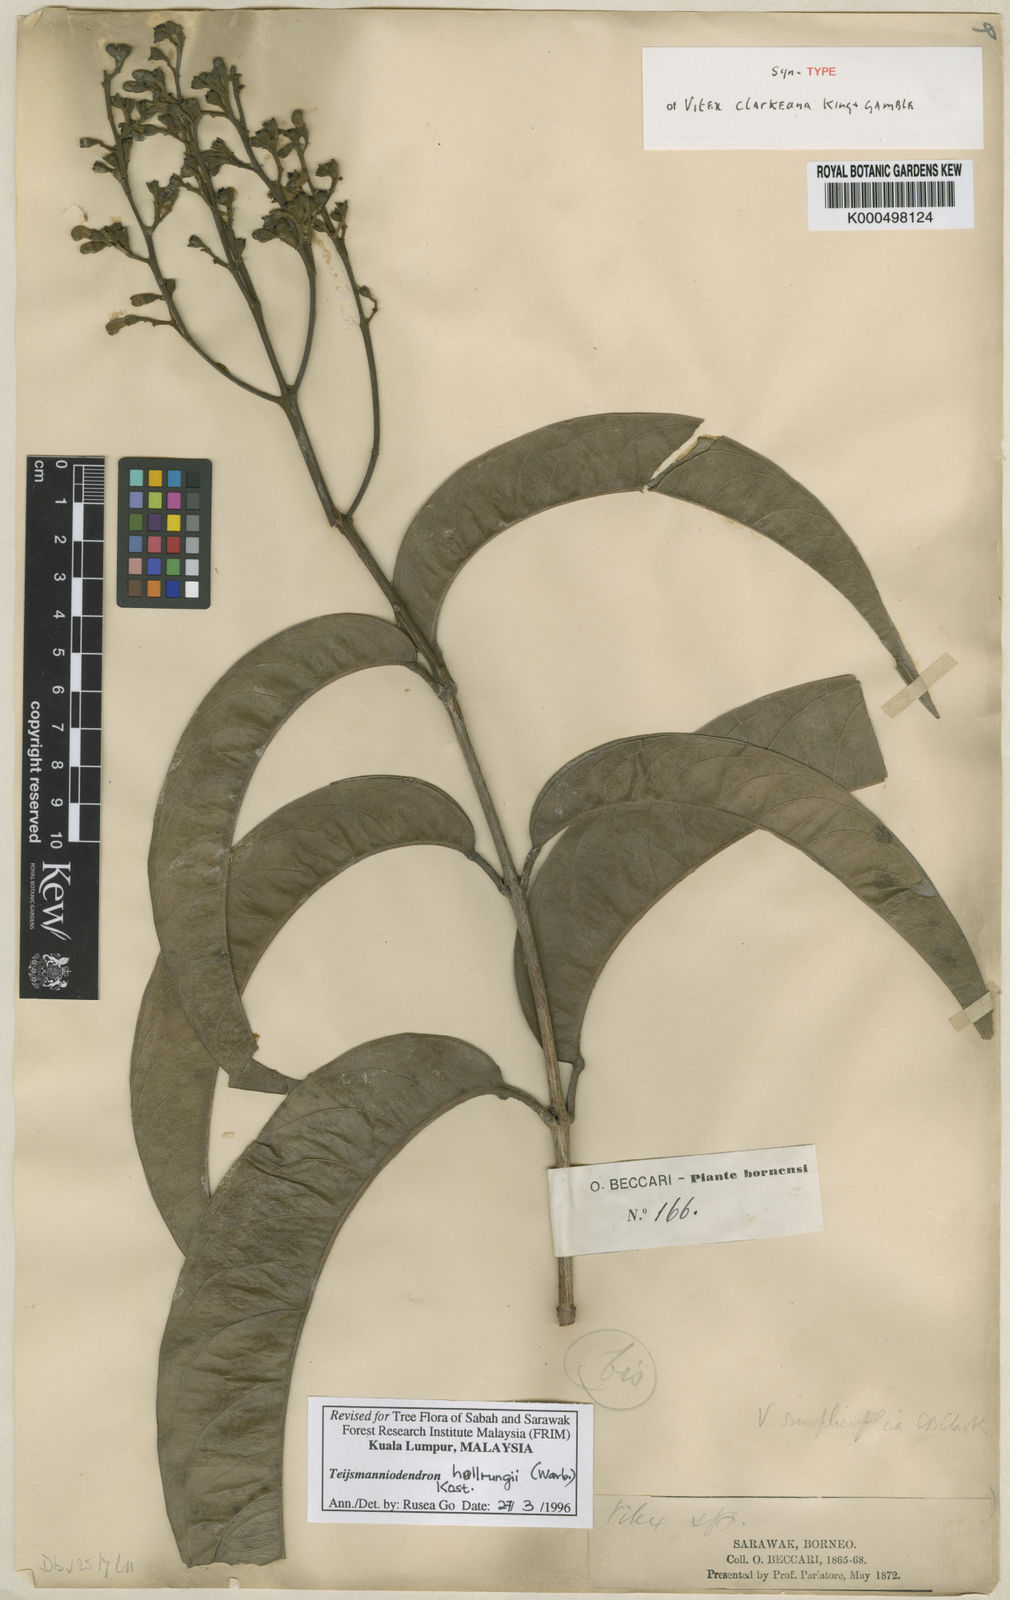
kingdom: Plantae
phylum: Tracheophyta
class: Magnoliopsida
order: Lamiales
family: Lamiaceae
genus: Teijsmanniodendron
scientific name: Teijsmanniodendron hollrungii
